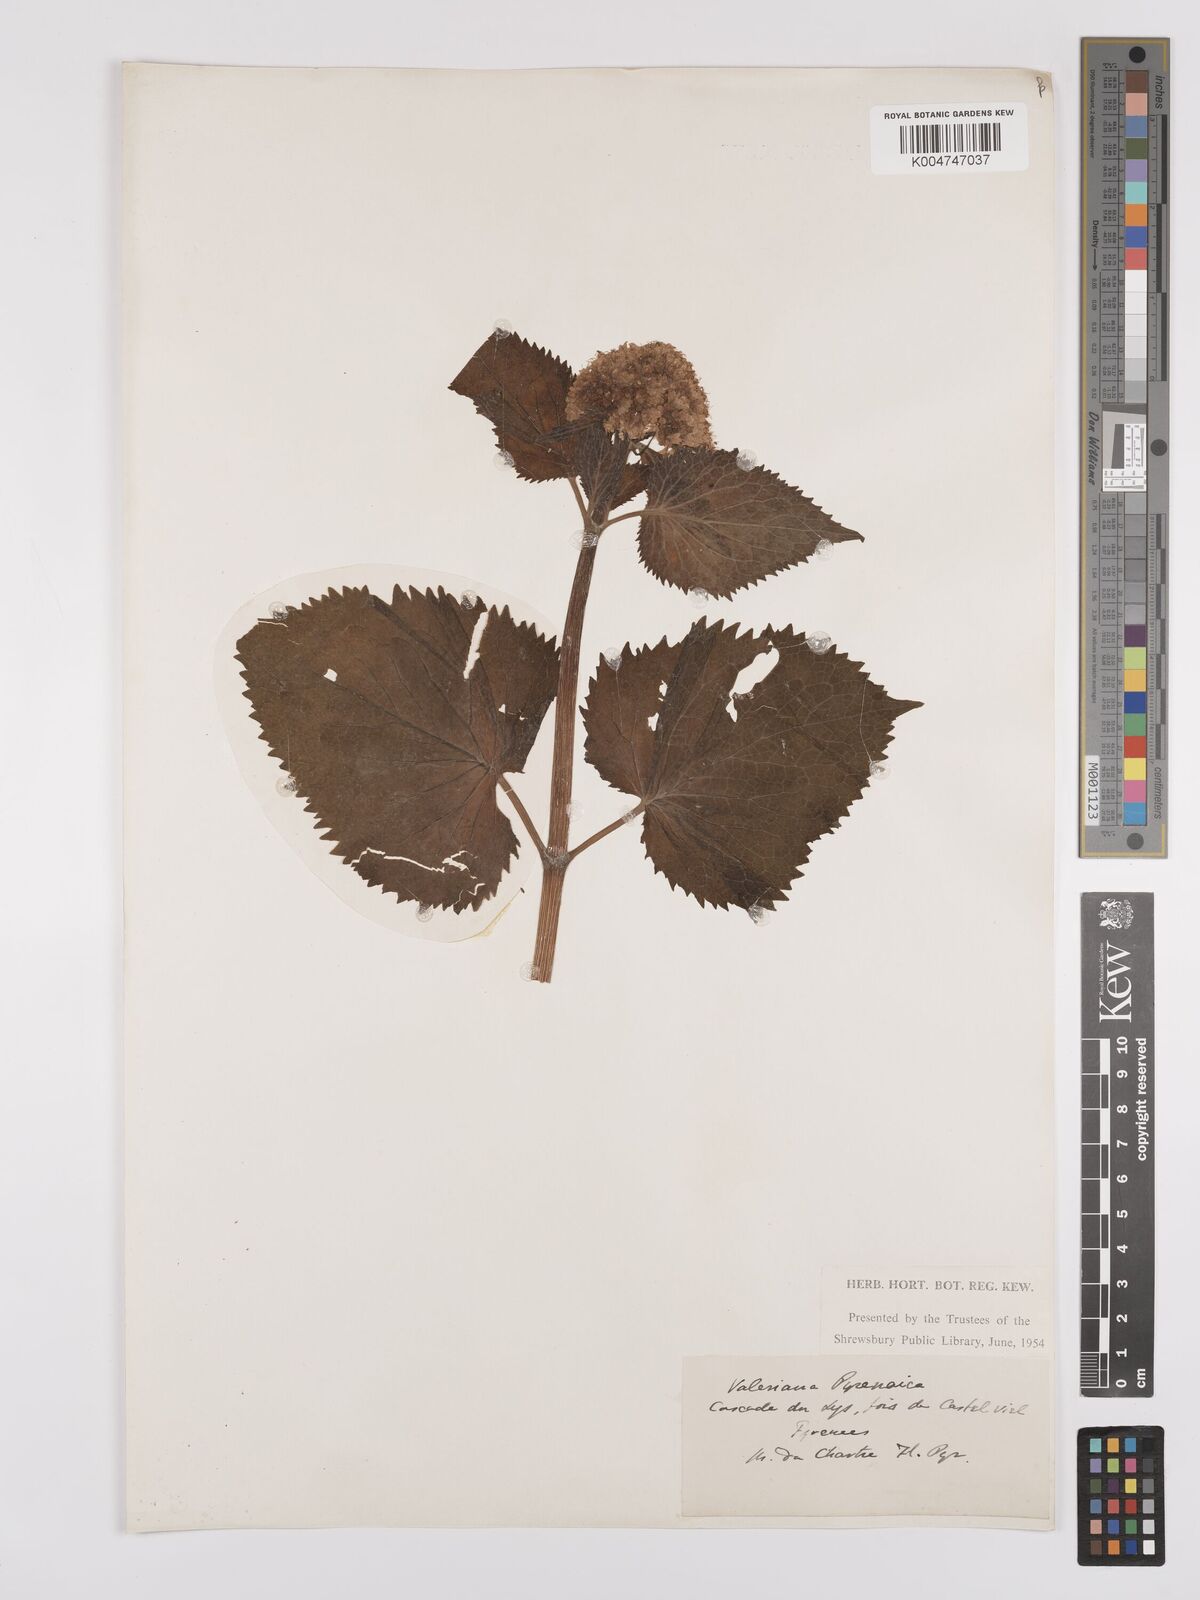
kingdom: Plantae
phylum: Tracheophyta
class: Magnoliopsida
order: Dipsacales
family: Caprifoliaceae
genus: Valeriana
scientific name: Valeriana pyrenaica
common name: Pyrenean valerian
